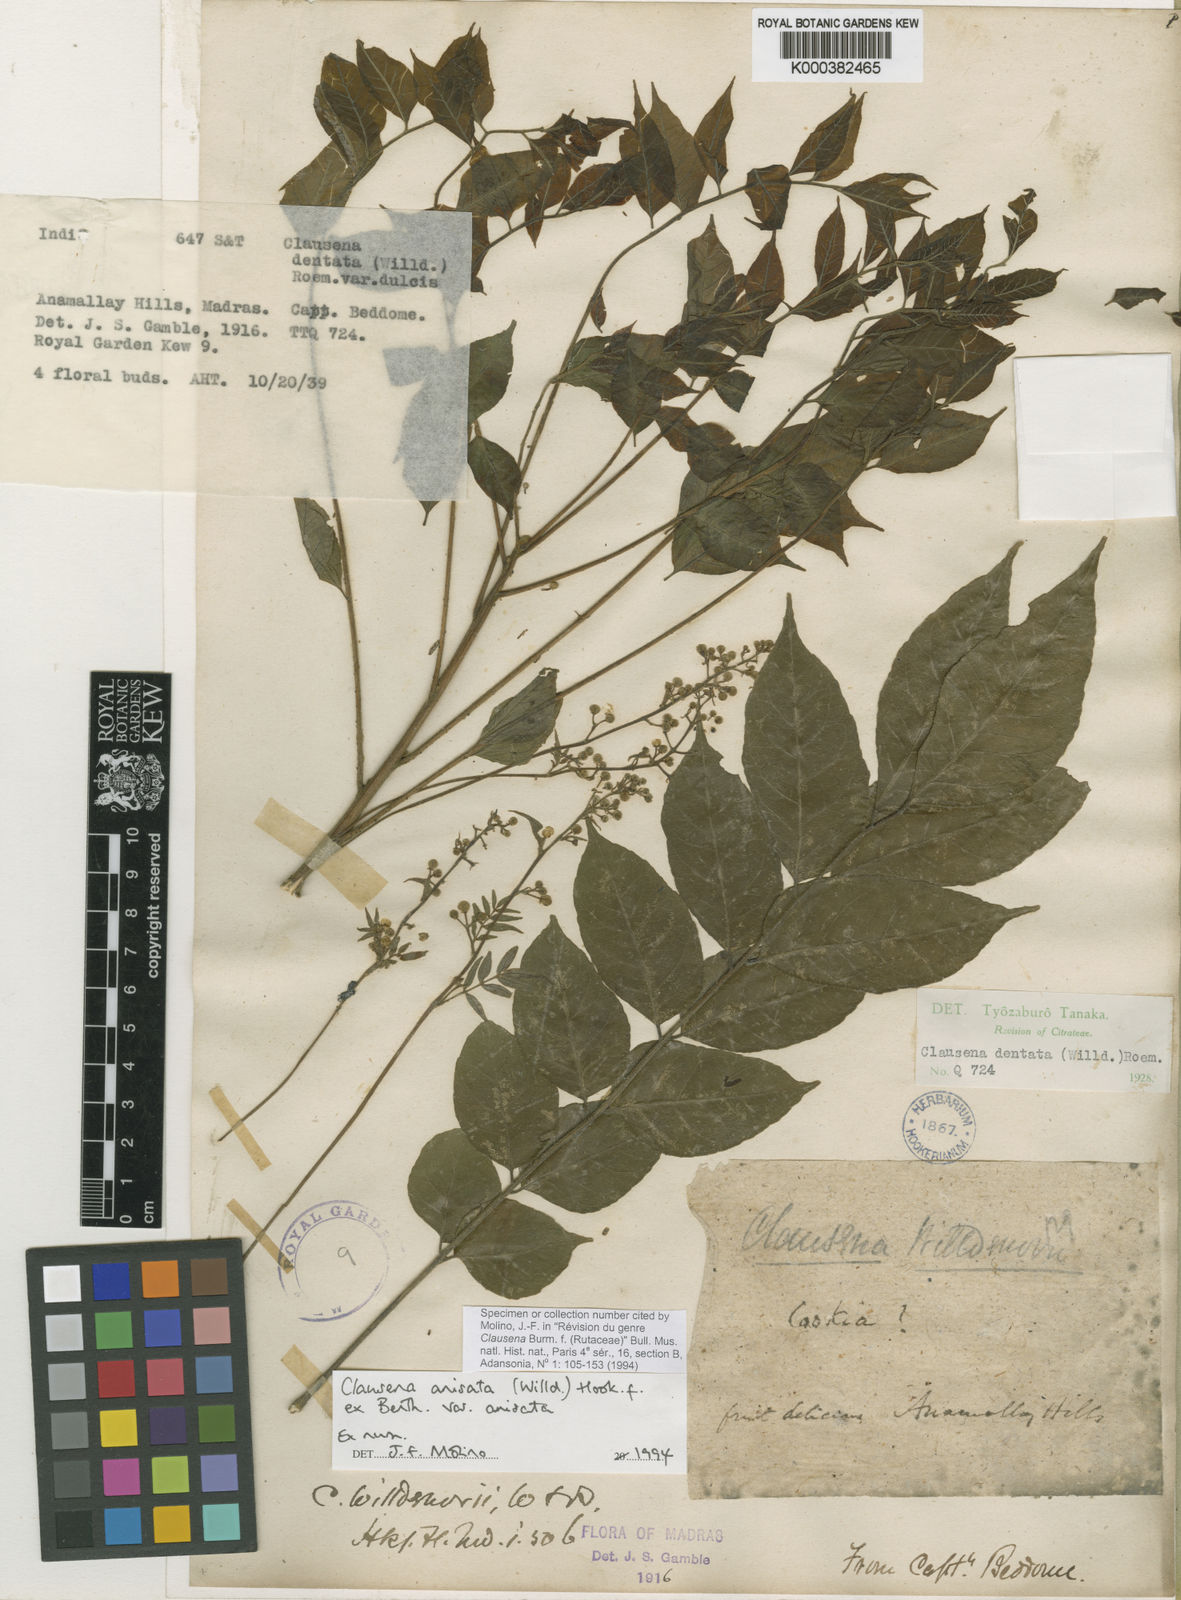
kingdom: Plantae
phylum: Tracheophyta
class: Magnoliopsida
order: Sapindales
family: Rutaceae
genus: Clausena
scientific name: Clausena anisata
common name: Horsewood
